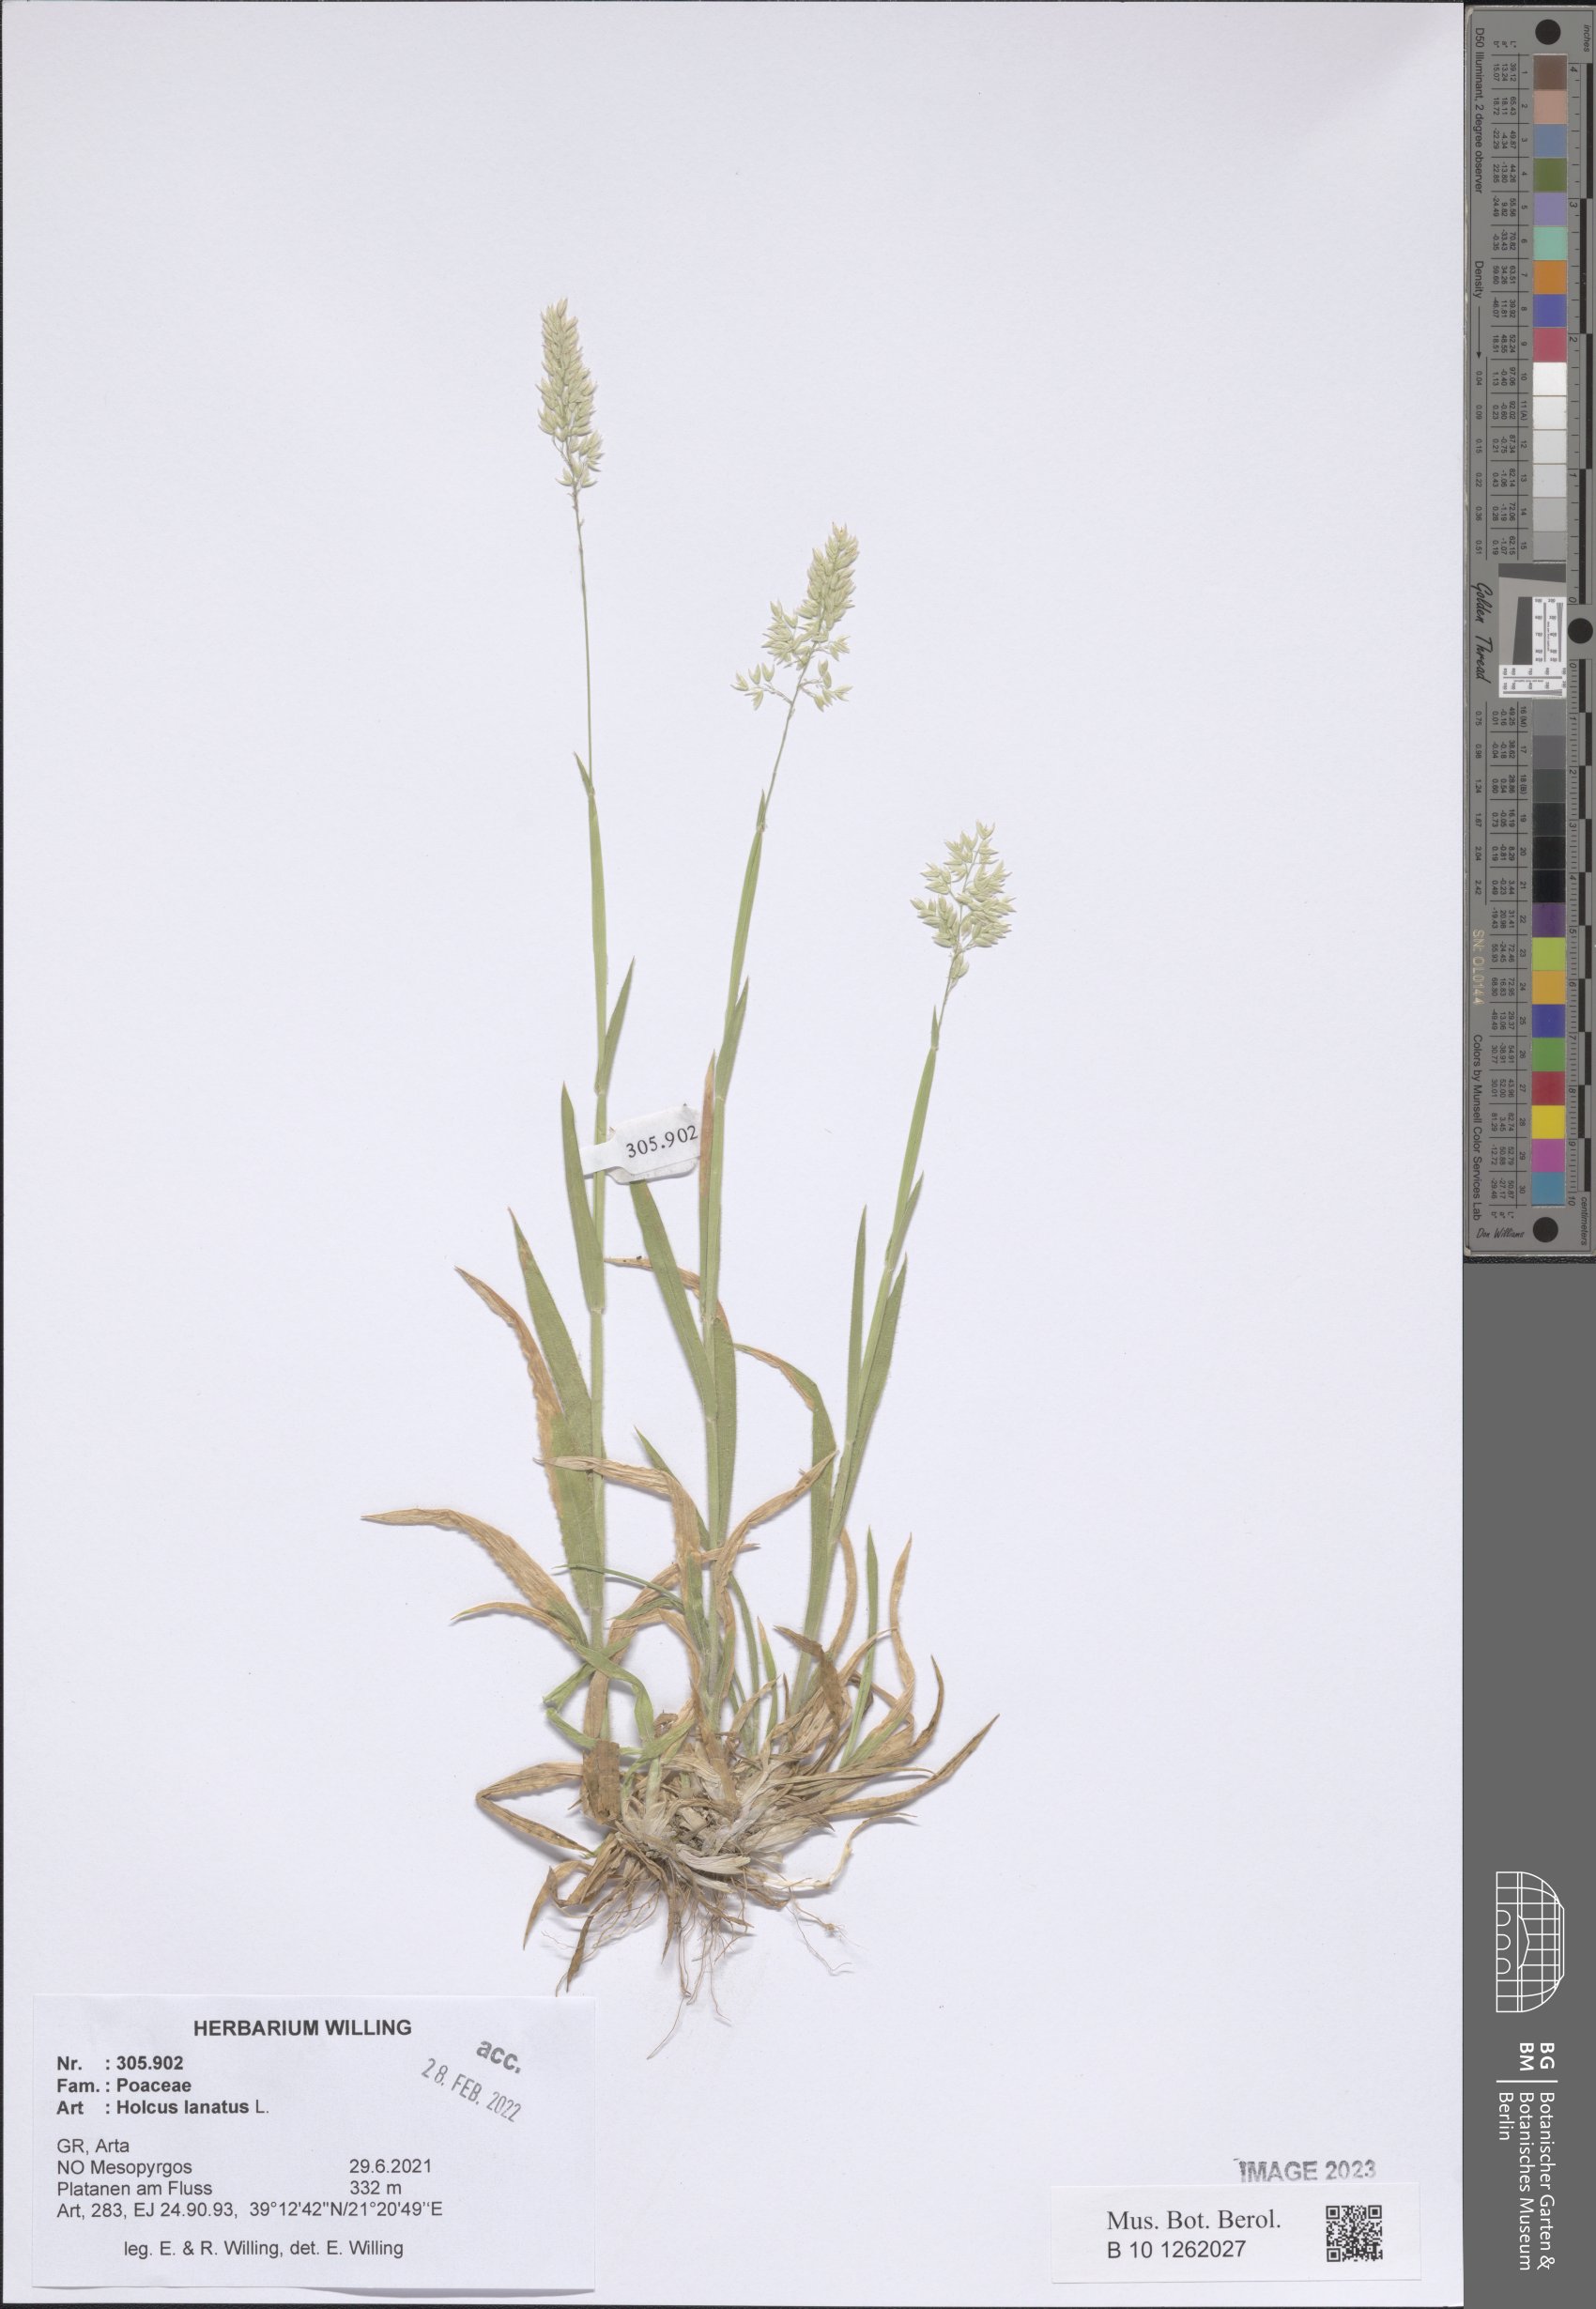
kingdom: Plantae
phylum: Tracheophyta
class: Liliopsida
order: Poales
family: Poaceae
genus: Holcus
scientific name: Holcus lanatus
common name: Yorkshire-fog
